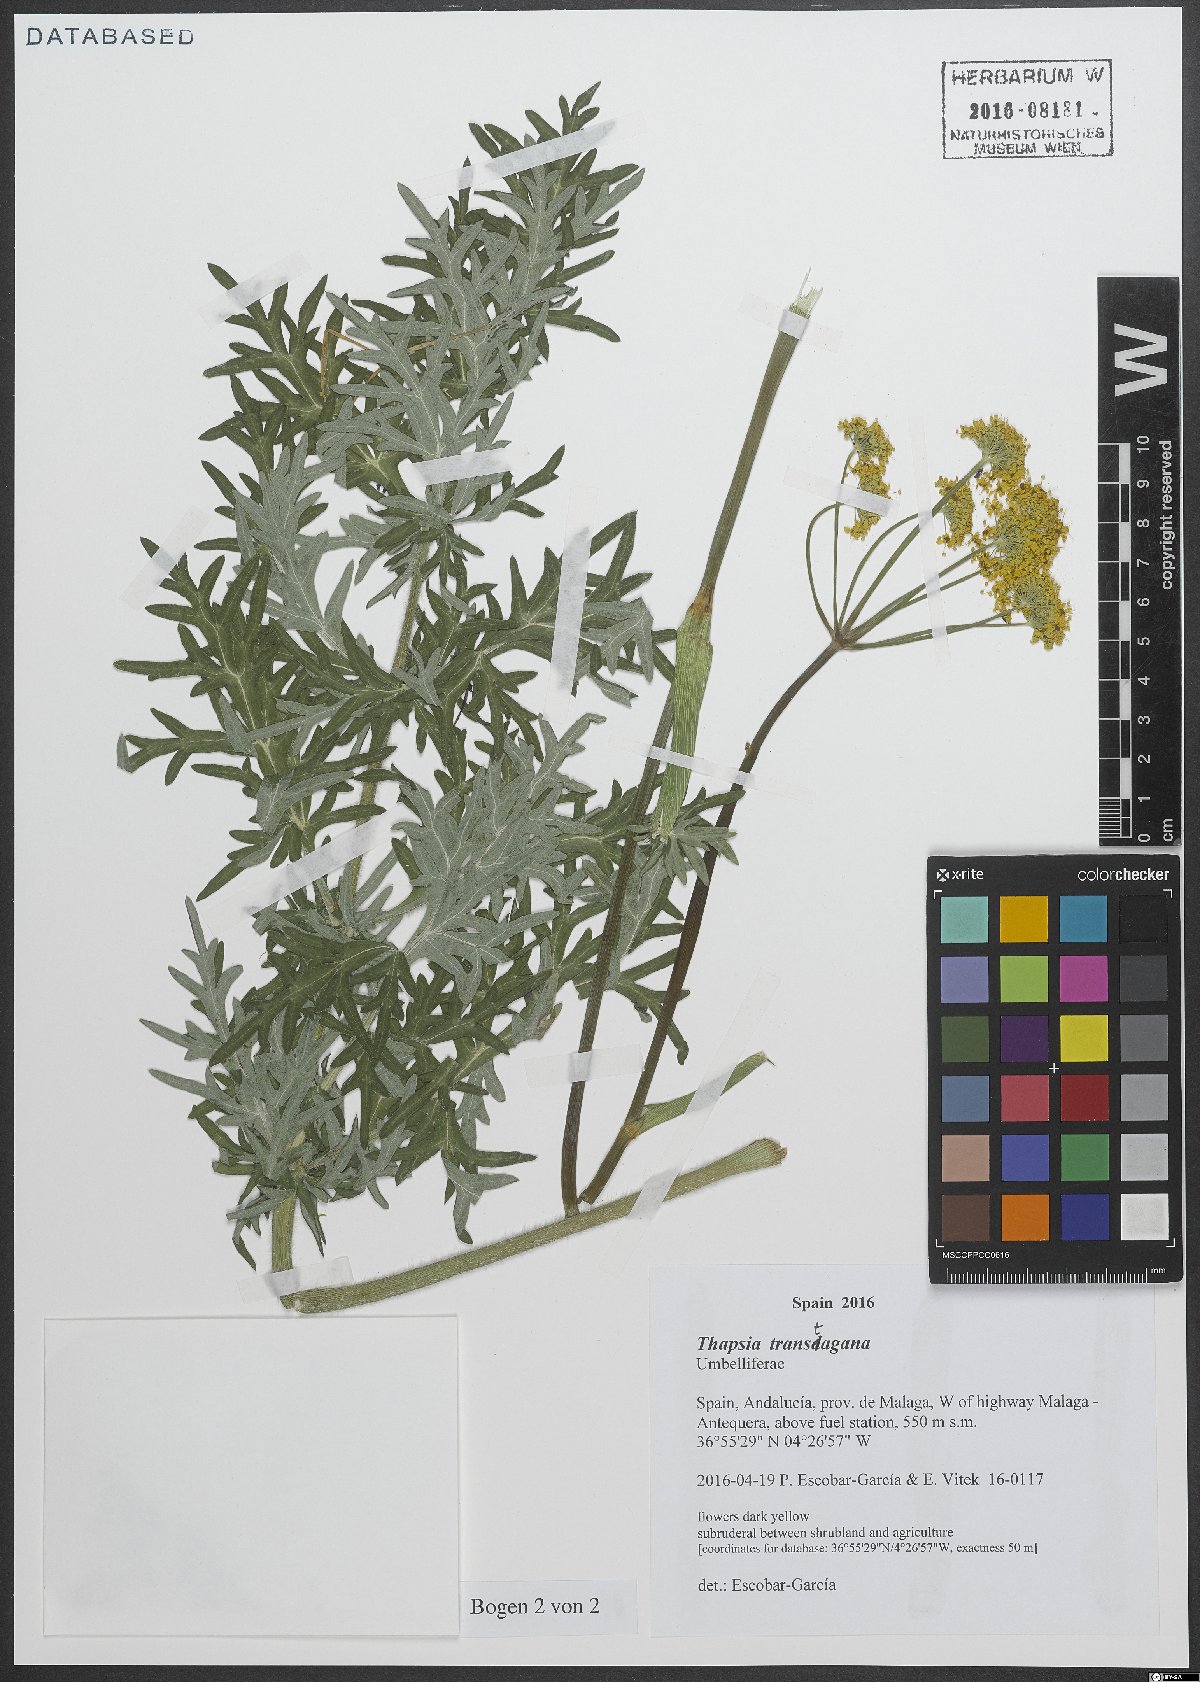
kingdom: Plantae
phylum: Tracheophyta
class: Magnoliopsida
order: Apiales
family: Apiaceae
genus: Thapsia
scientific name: Thapsia transtagana
